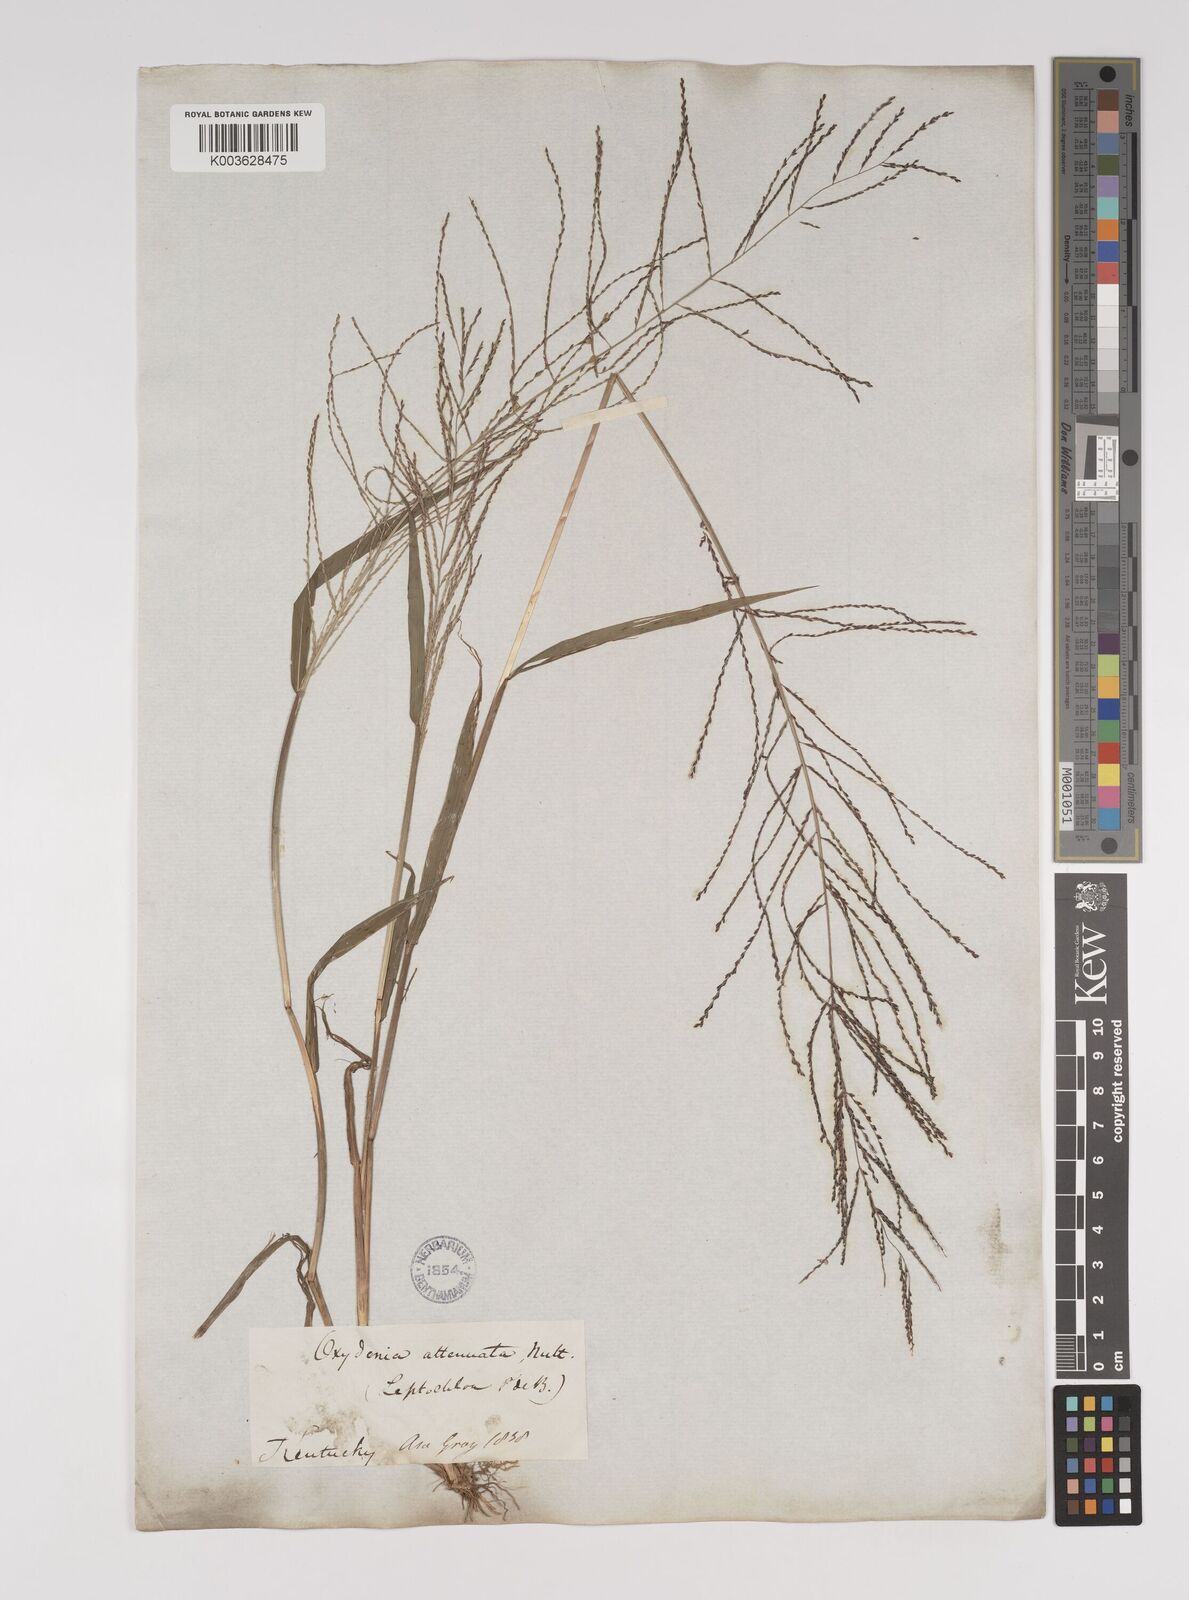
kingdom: Plantae
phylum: Tracheophyta
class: Liliopsida
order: Poales
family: Poaceae
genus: Leptochloa
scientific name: Leptochloa panicea
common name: Mucronate sprangletop
